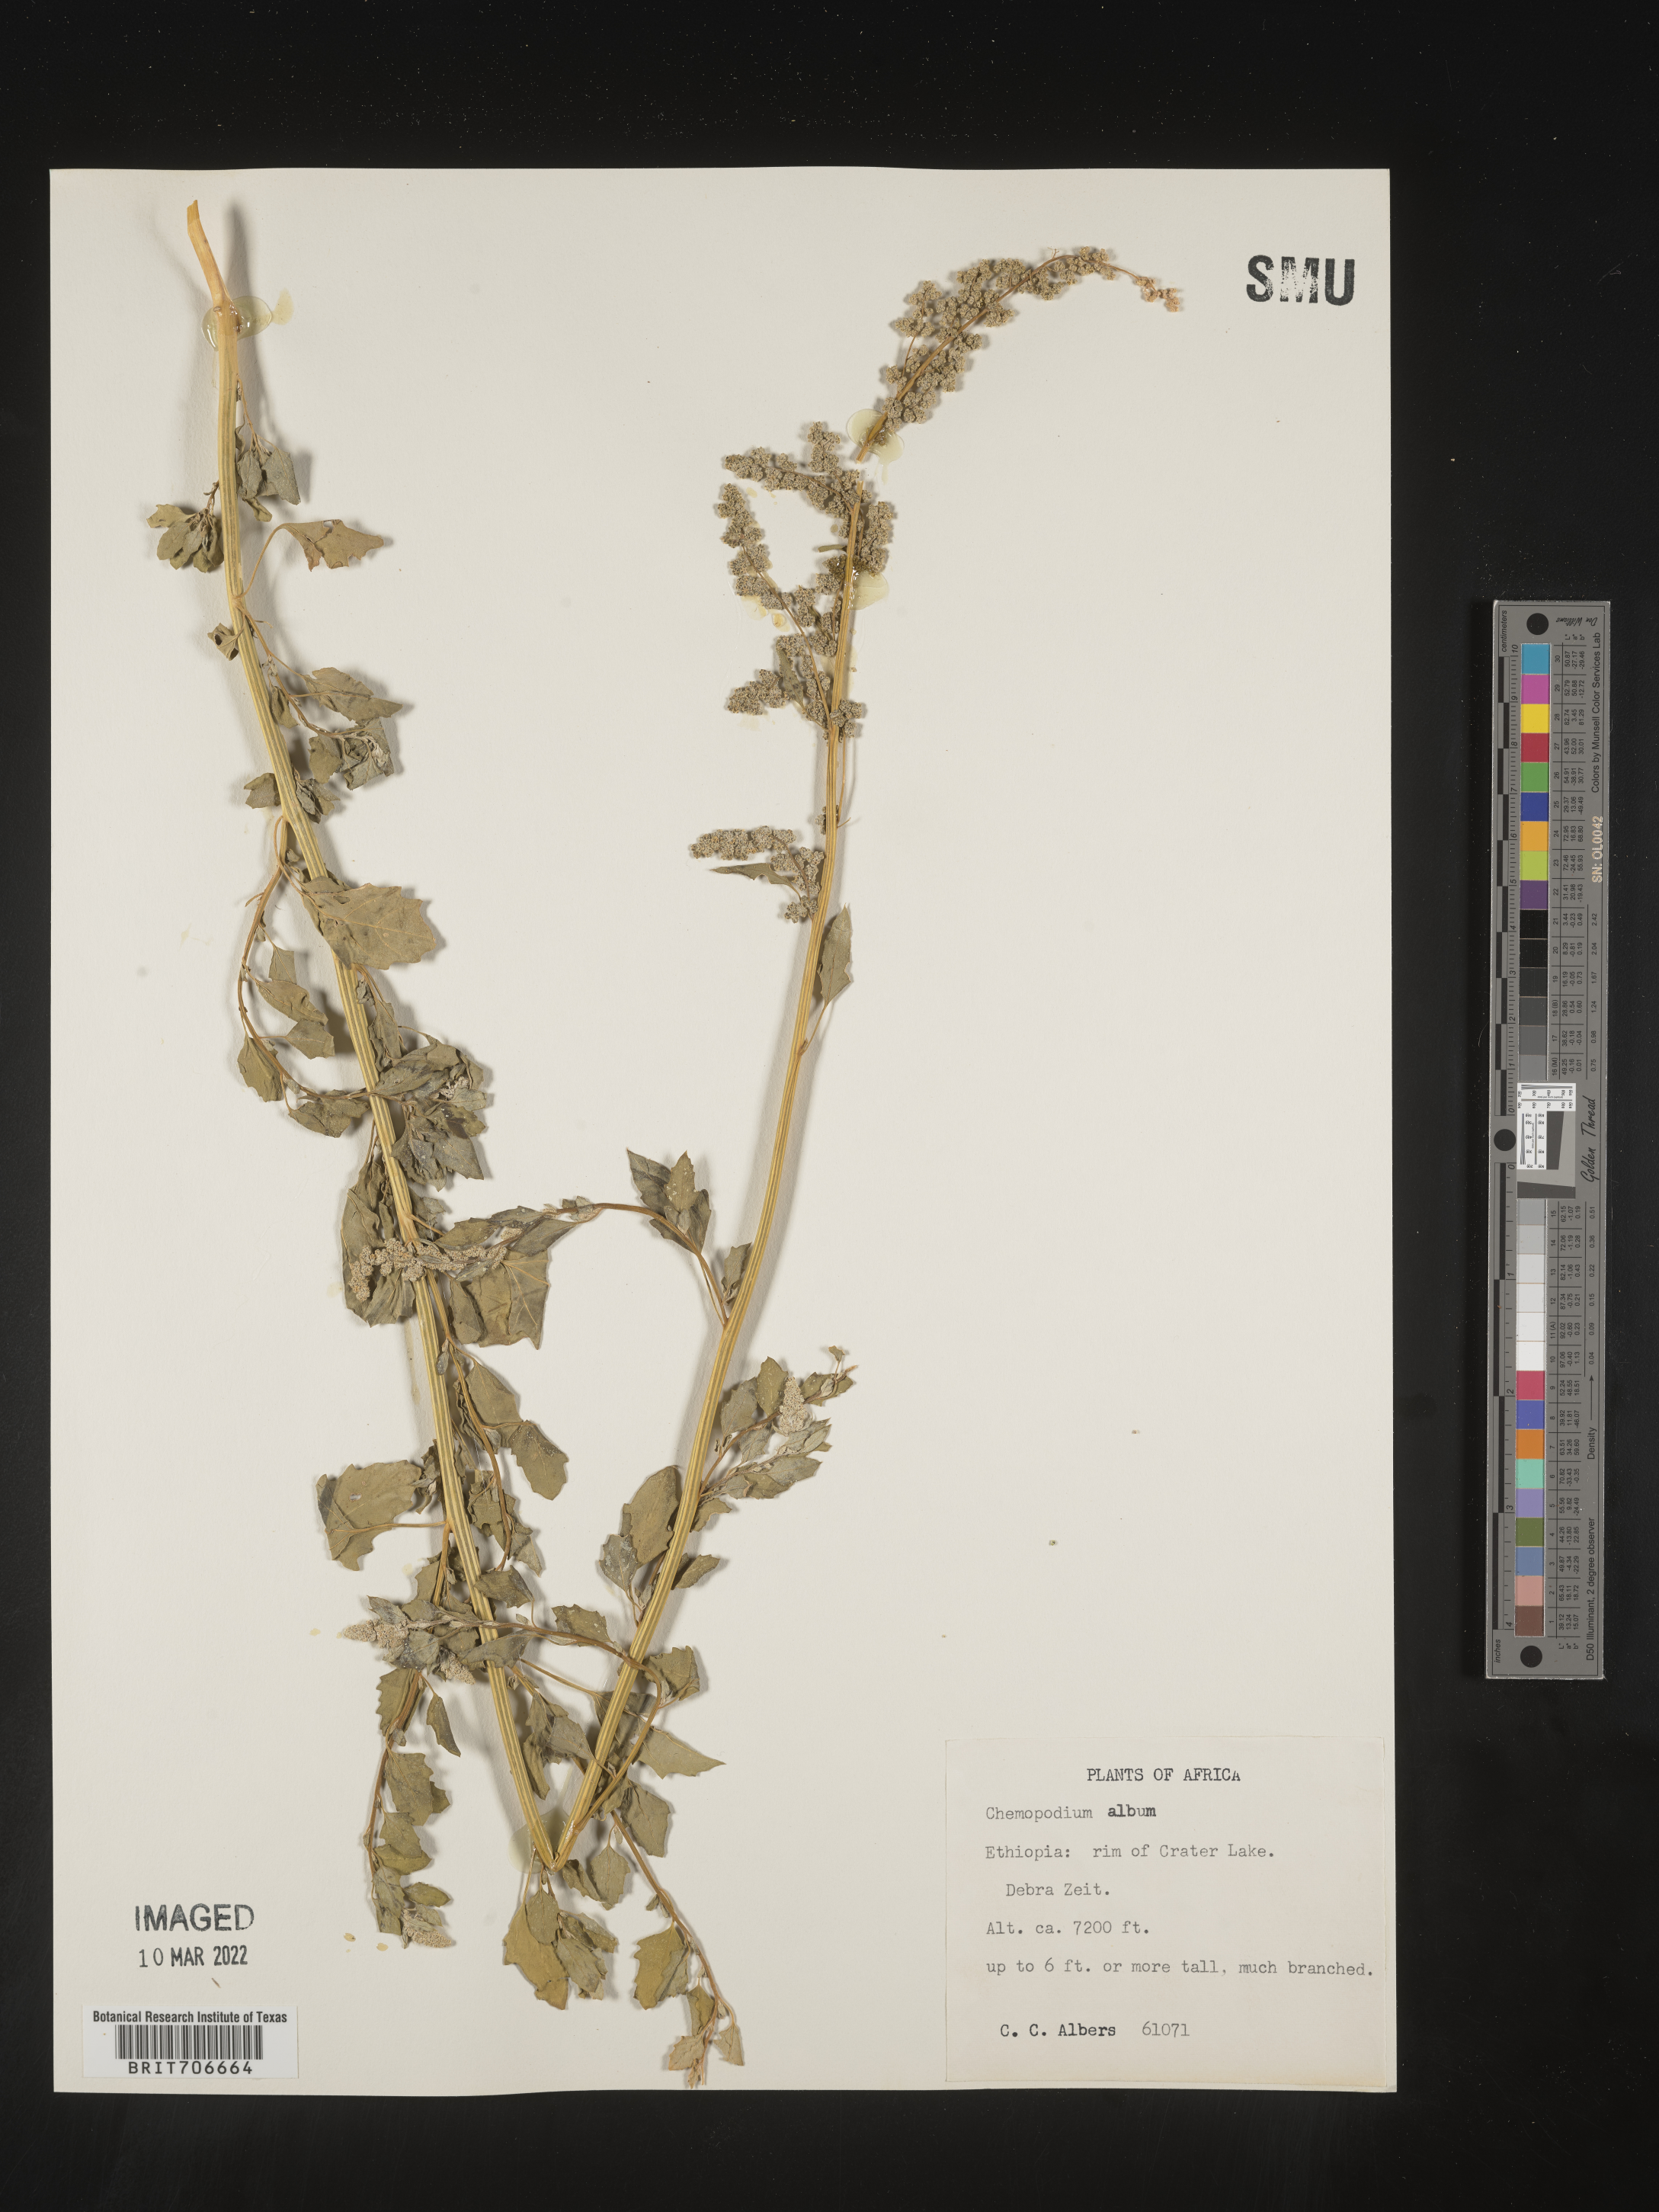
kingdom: Plantae
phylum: Tracheophyta
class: Magnoliopsida
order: Caryophyllales
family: Amaranthaceae
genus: Chenopodium
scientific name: Chenopodium
